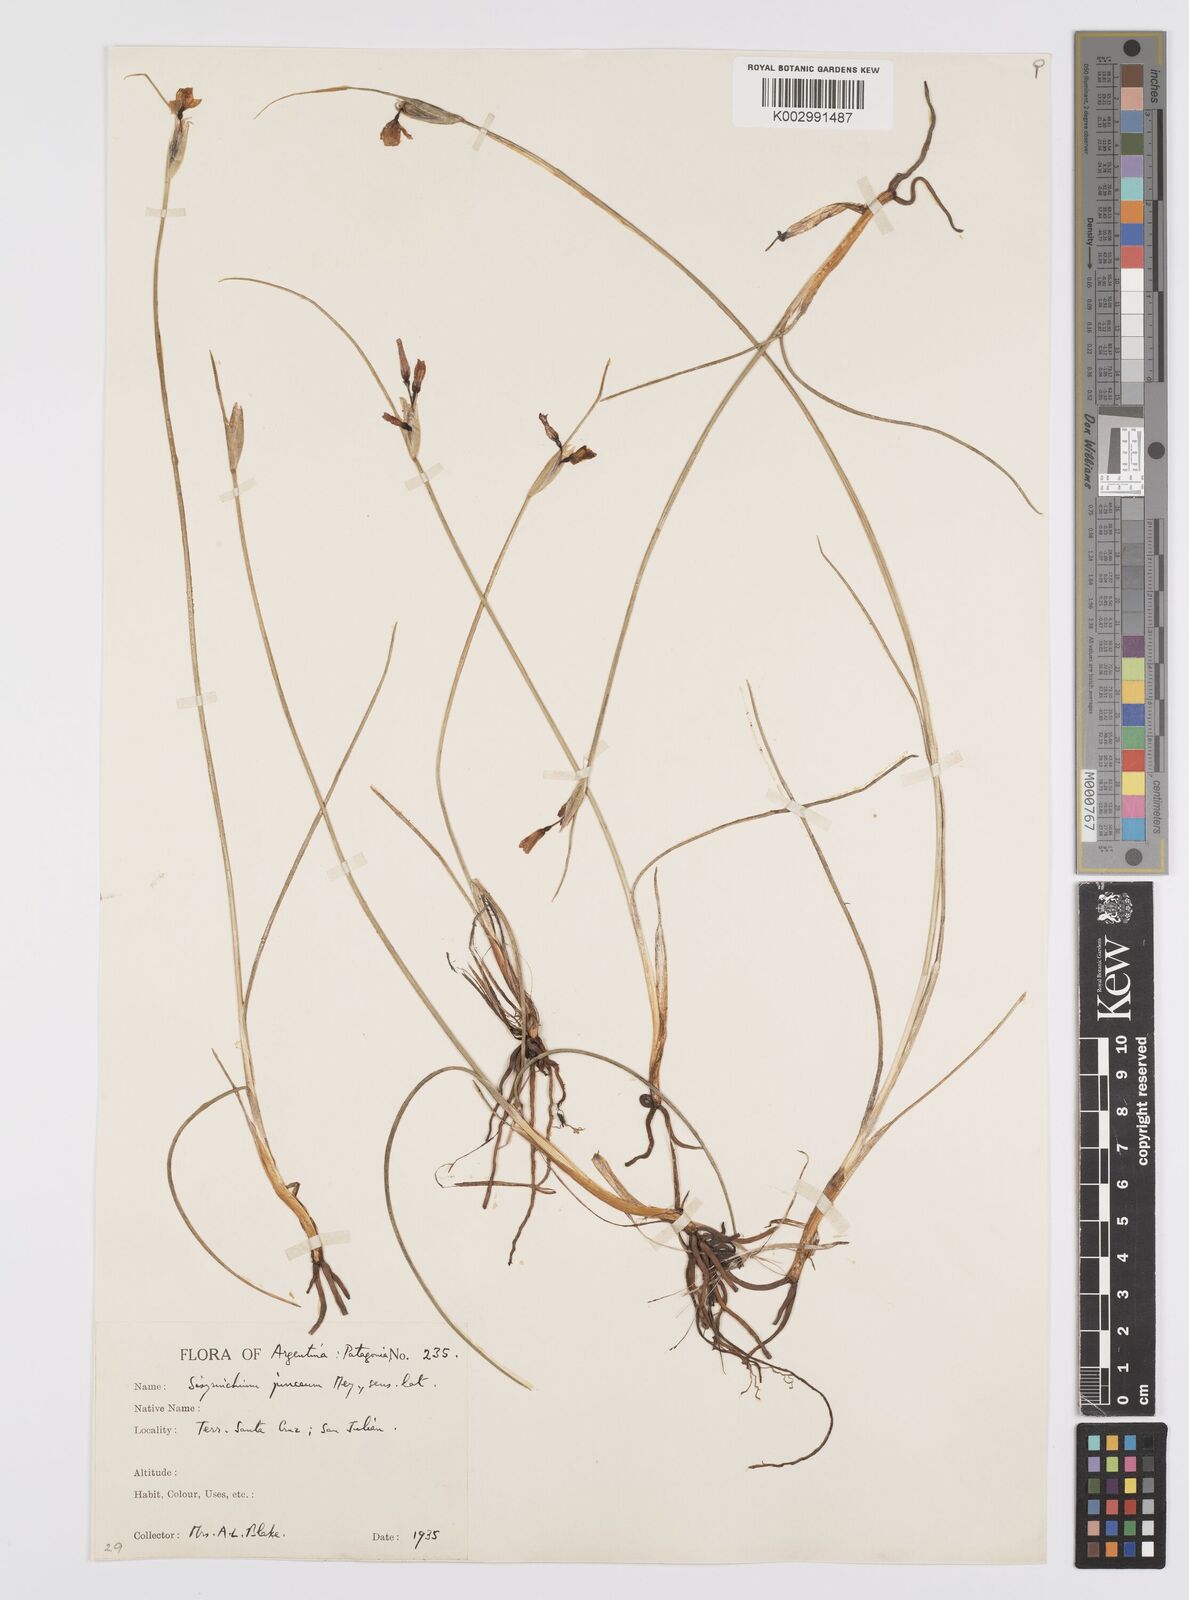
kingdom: Plantae
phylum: Tracheophyta
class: Liliopsida
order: Asparagales
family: Iridaceae
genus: Olsynium
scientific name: Olsynium
